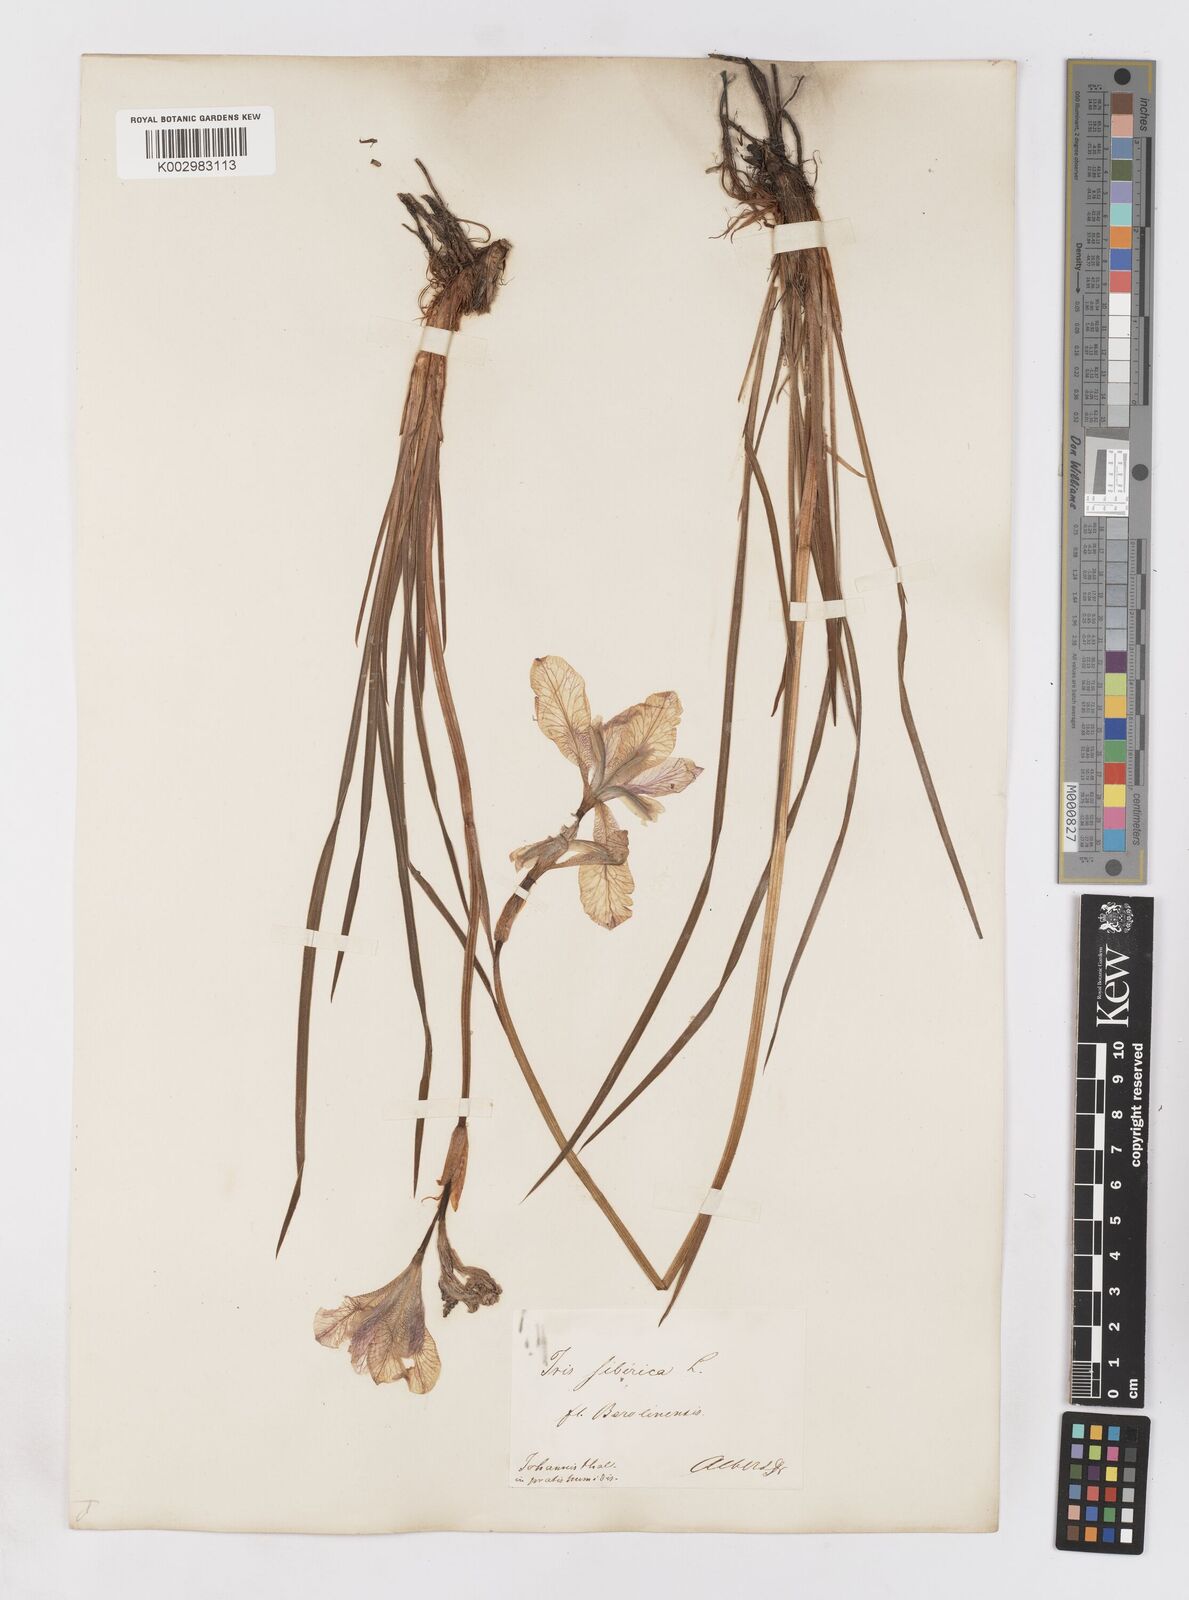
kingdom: Plantae
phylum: Tracheophyta
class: Liliopsida
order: Asparagales
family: Iridaceae
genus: Iris
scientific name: Iris sibirica
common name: Siberian iris
